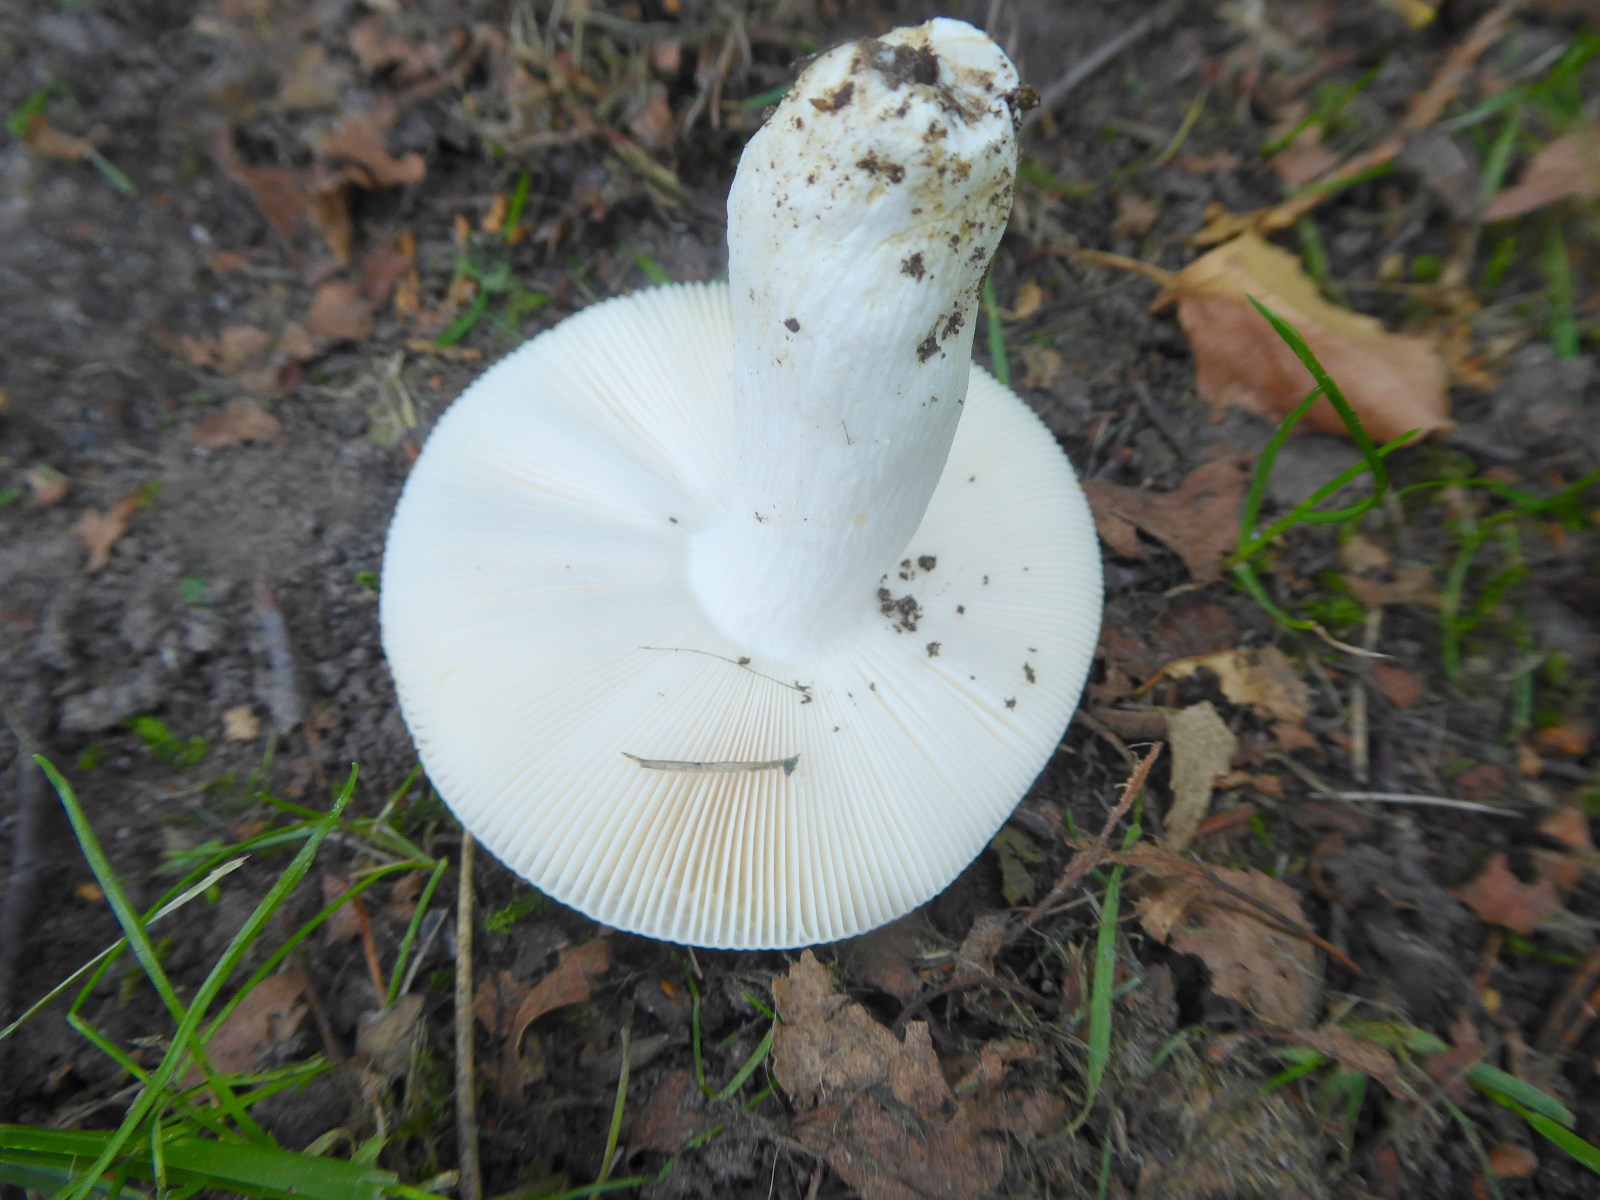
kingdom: Fungi
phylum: Basidiomycota
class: Agaricomycetes
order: Russulales
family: Russulaceae
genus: Russula
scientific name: Russula aeruginea
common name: græsgrøn skørhat
